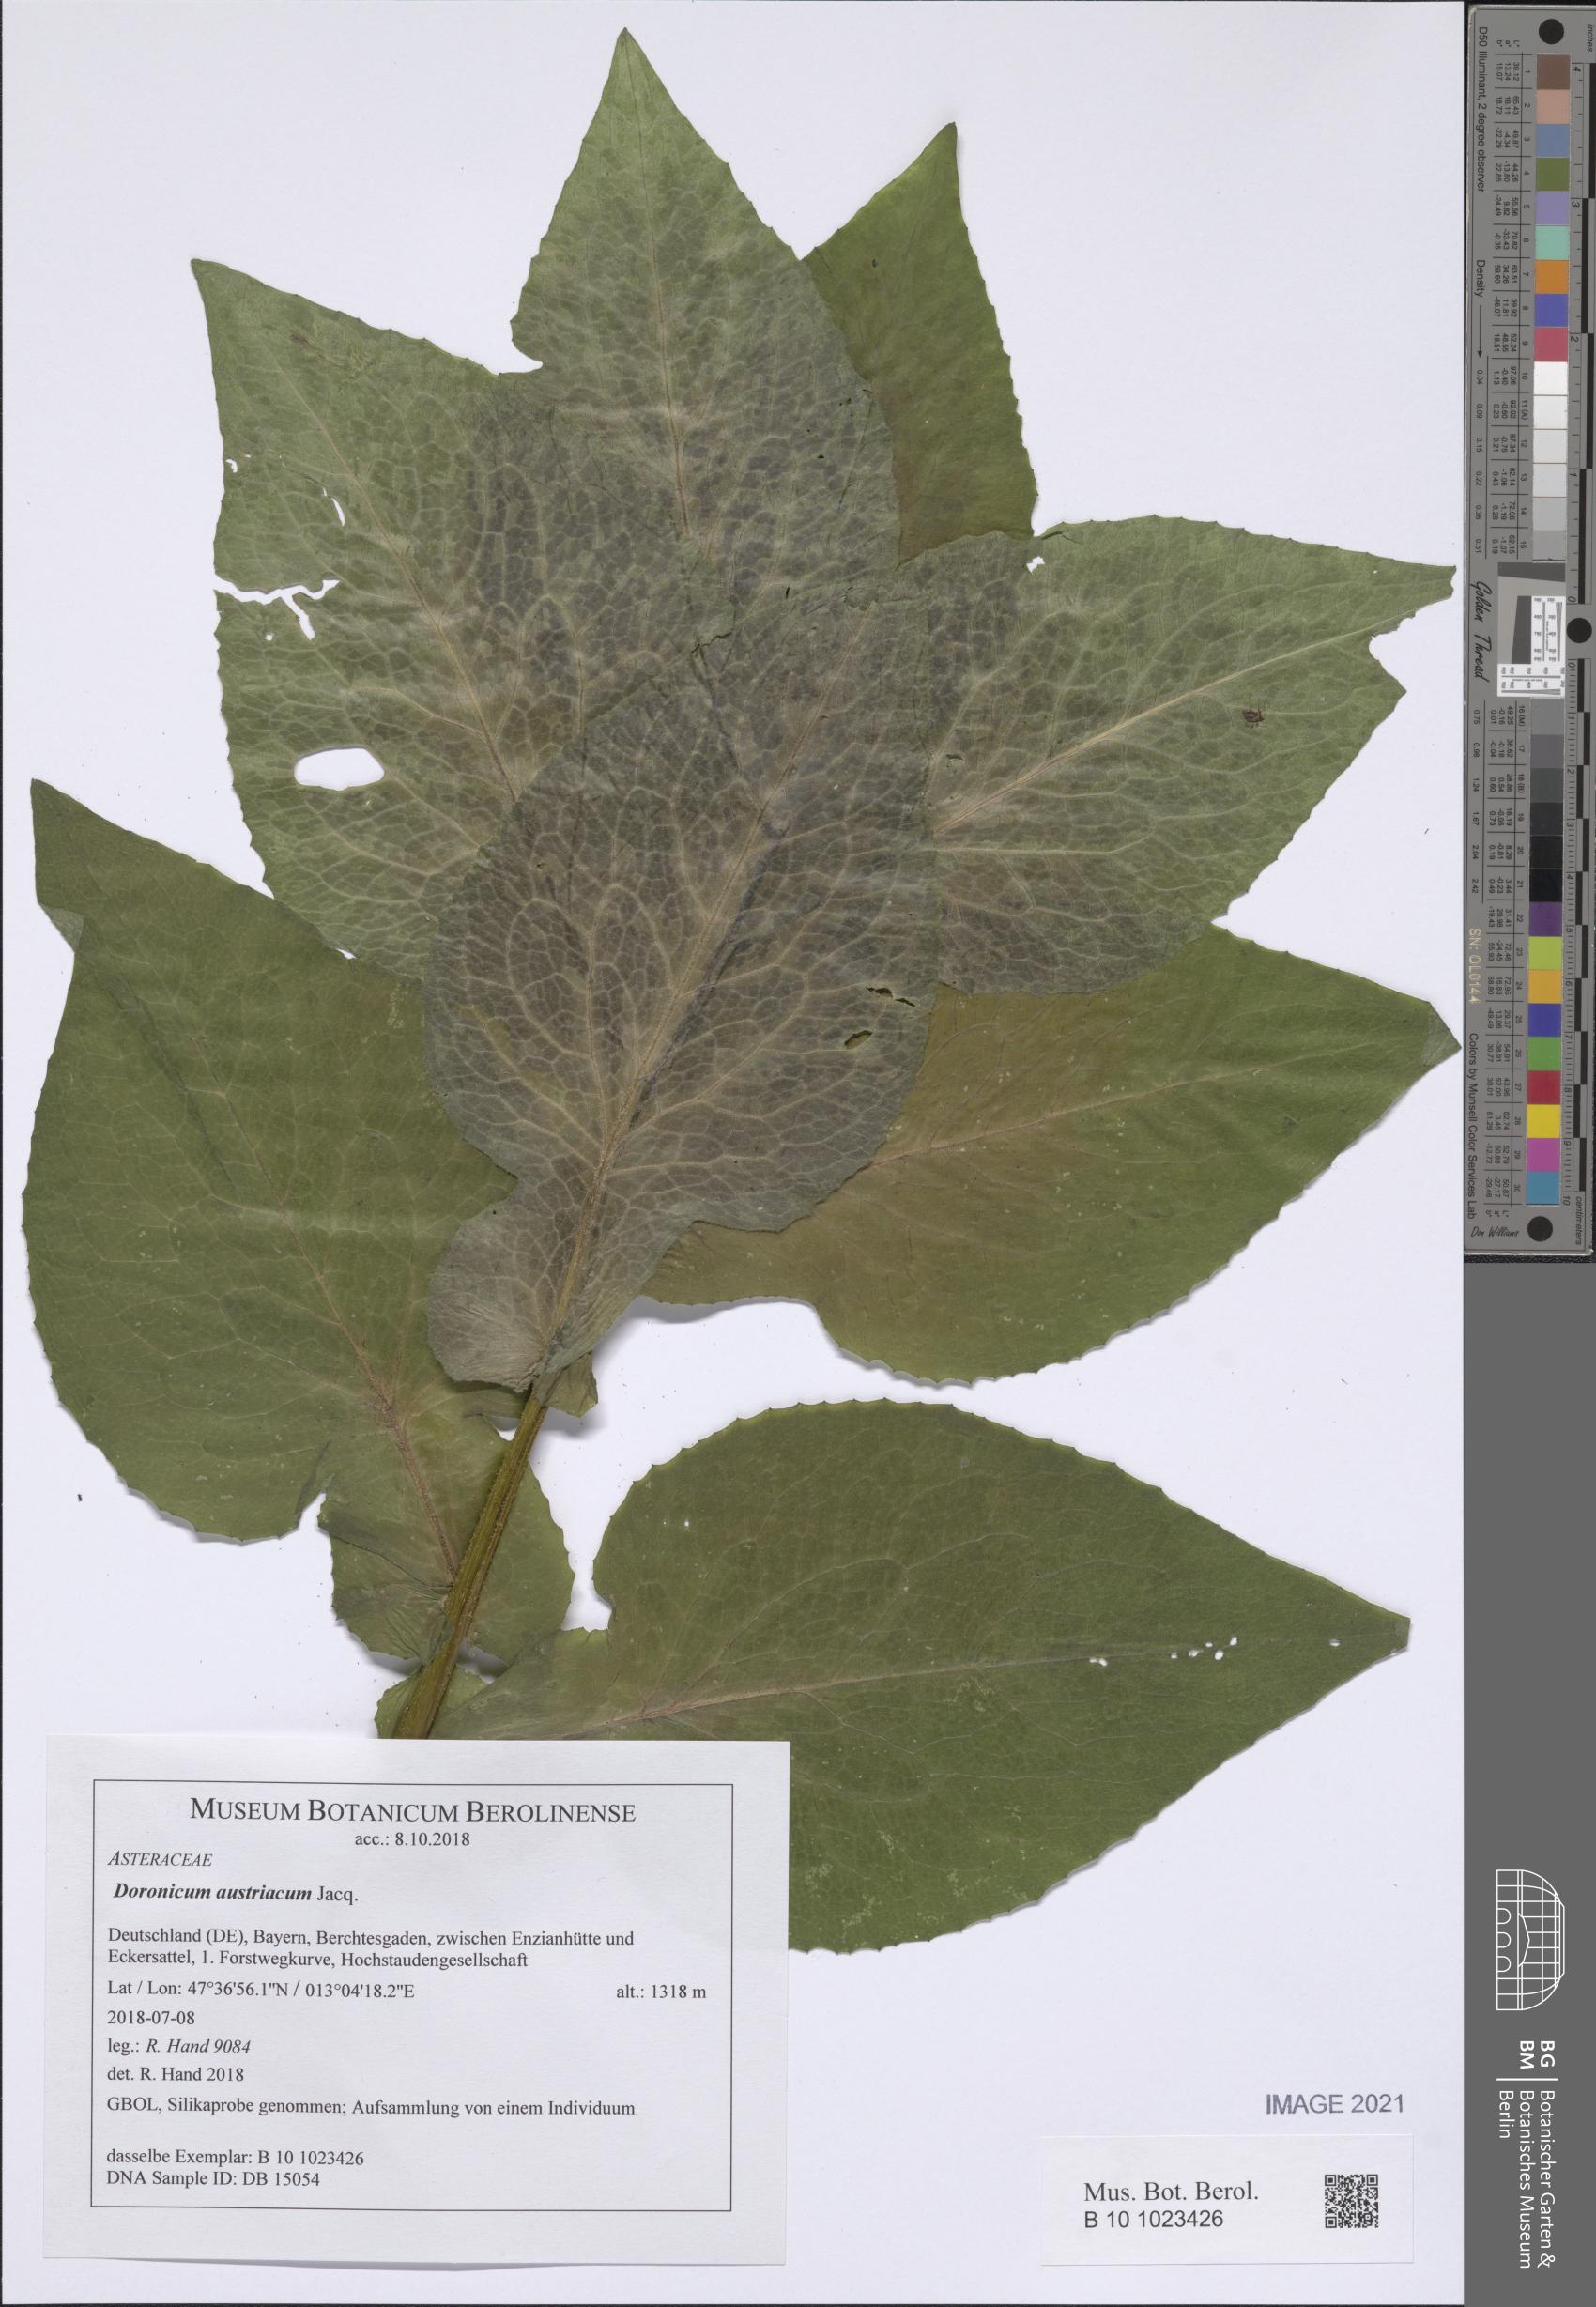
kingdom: Plantae
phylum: Tracheophyta
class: Magnoliopsida
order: Asterales
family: Asteraceae
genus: Doronicum
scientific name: Doronicum austriacum
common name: Austrian leopard's-bane
